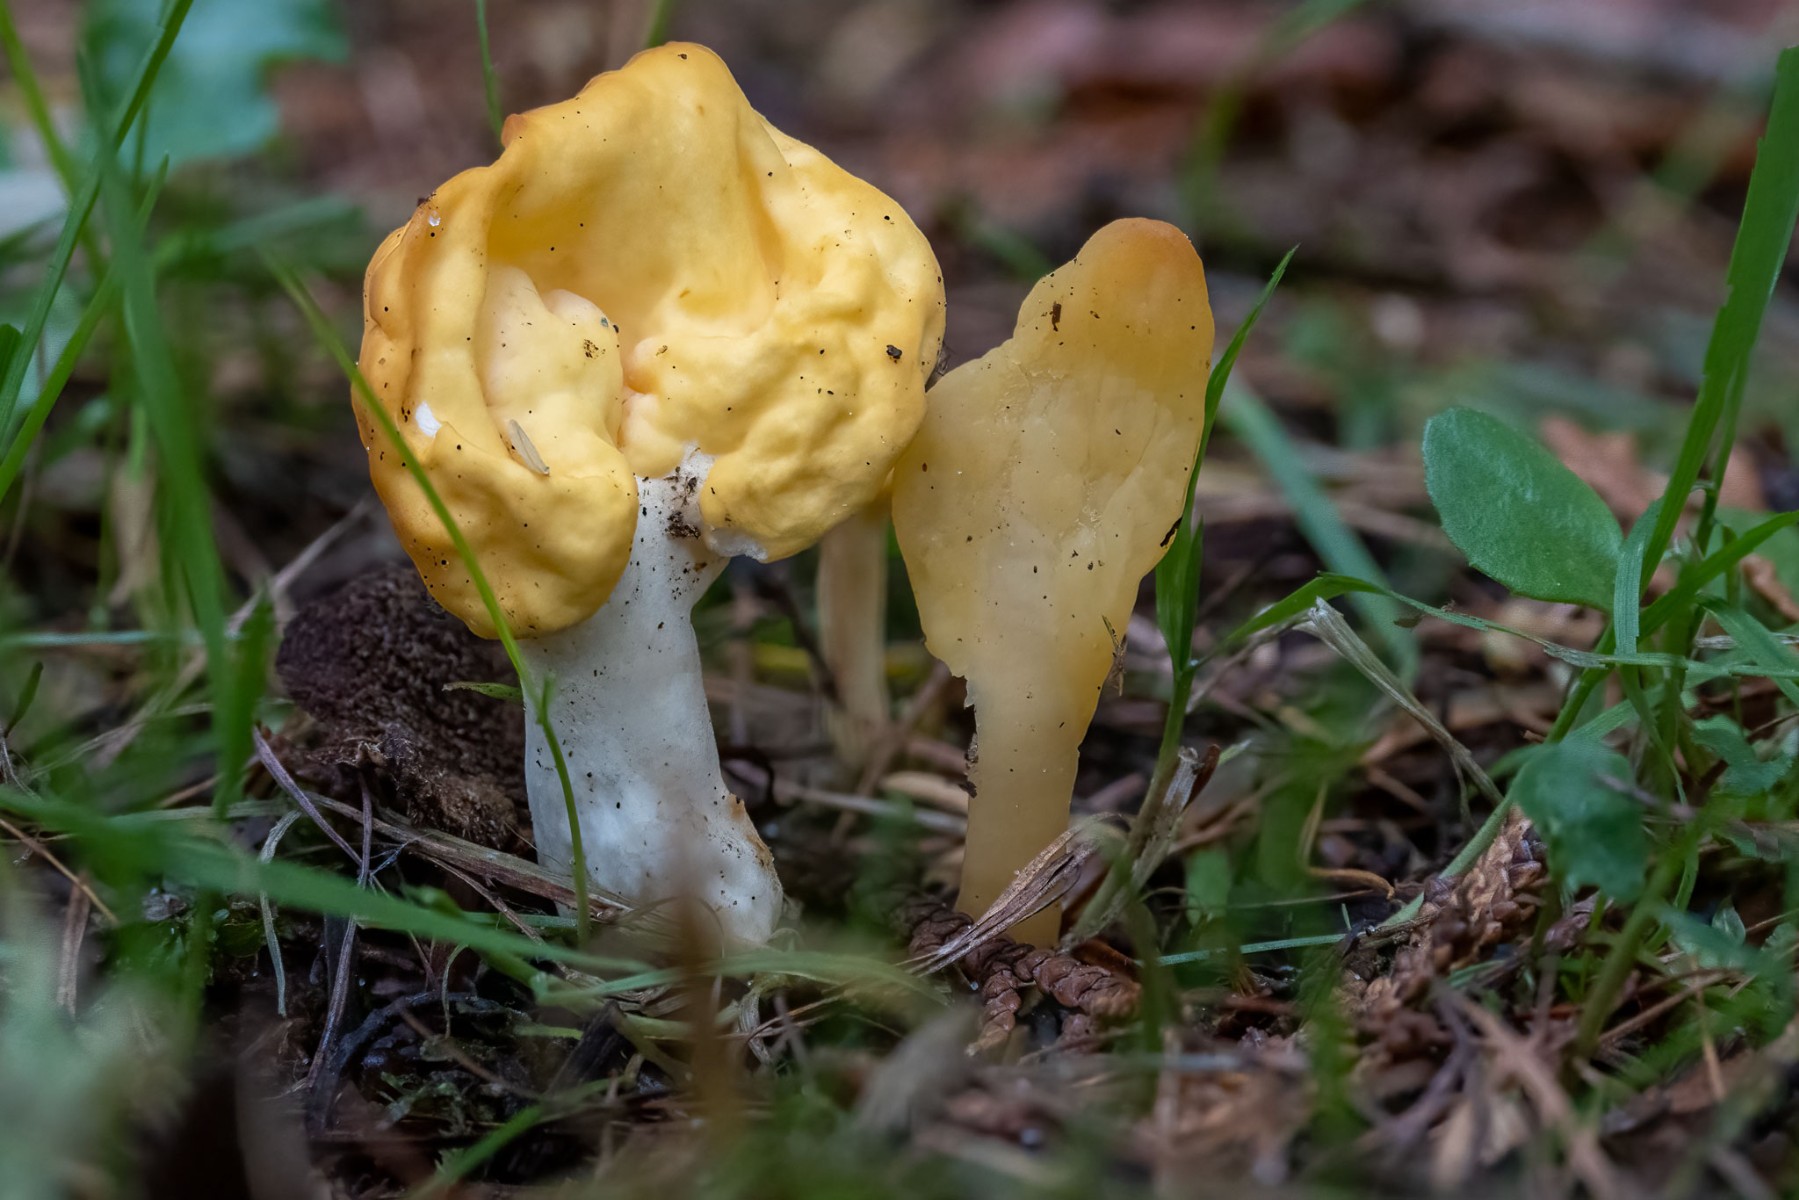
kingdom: Fungi
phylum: Ascomycota
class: Leotiomycetes
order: Rhytismatales
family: Cudoniaceae
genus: Spathularia
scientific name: Spathularia flavida
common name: gul spatelsvamp
